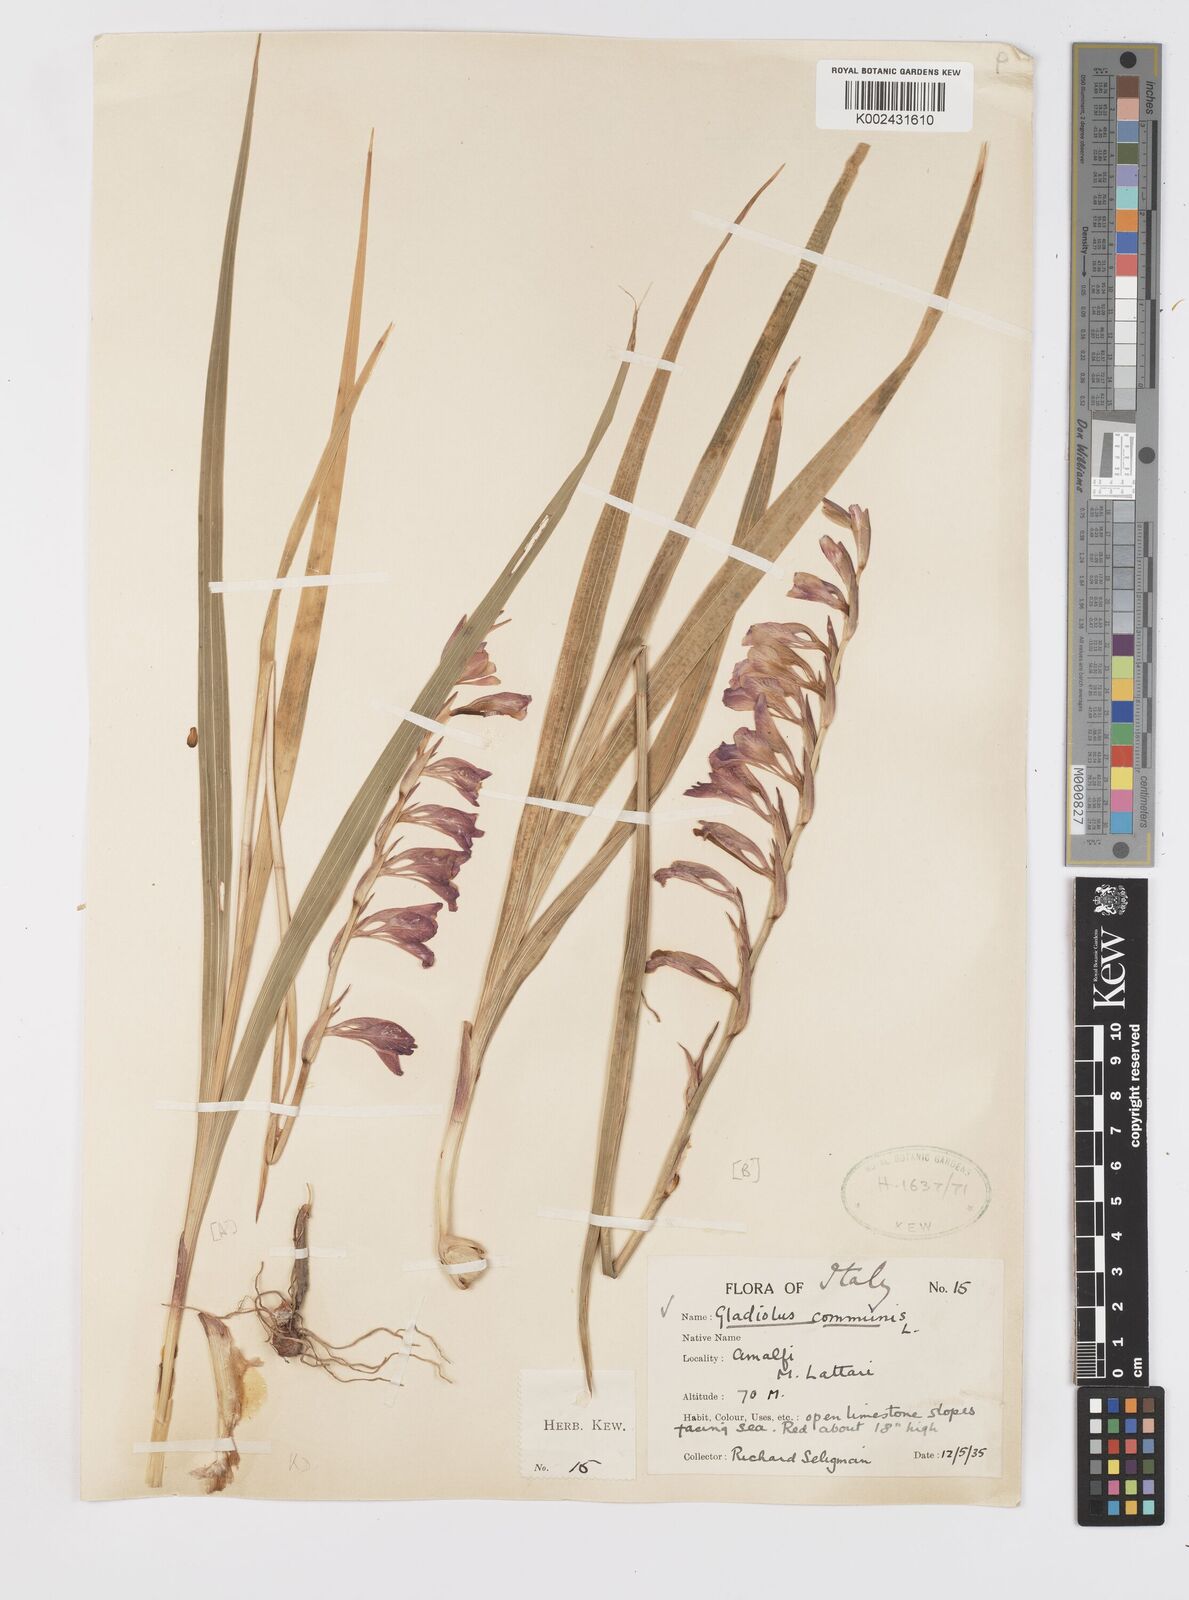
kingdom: Plantae
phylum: Tracheophyta
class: Liliopsida
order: Asparagales
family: Iridaceae
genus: Gladiolus
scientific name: Gladiolus communis
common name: Eastern gladiolus
